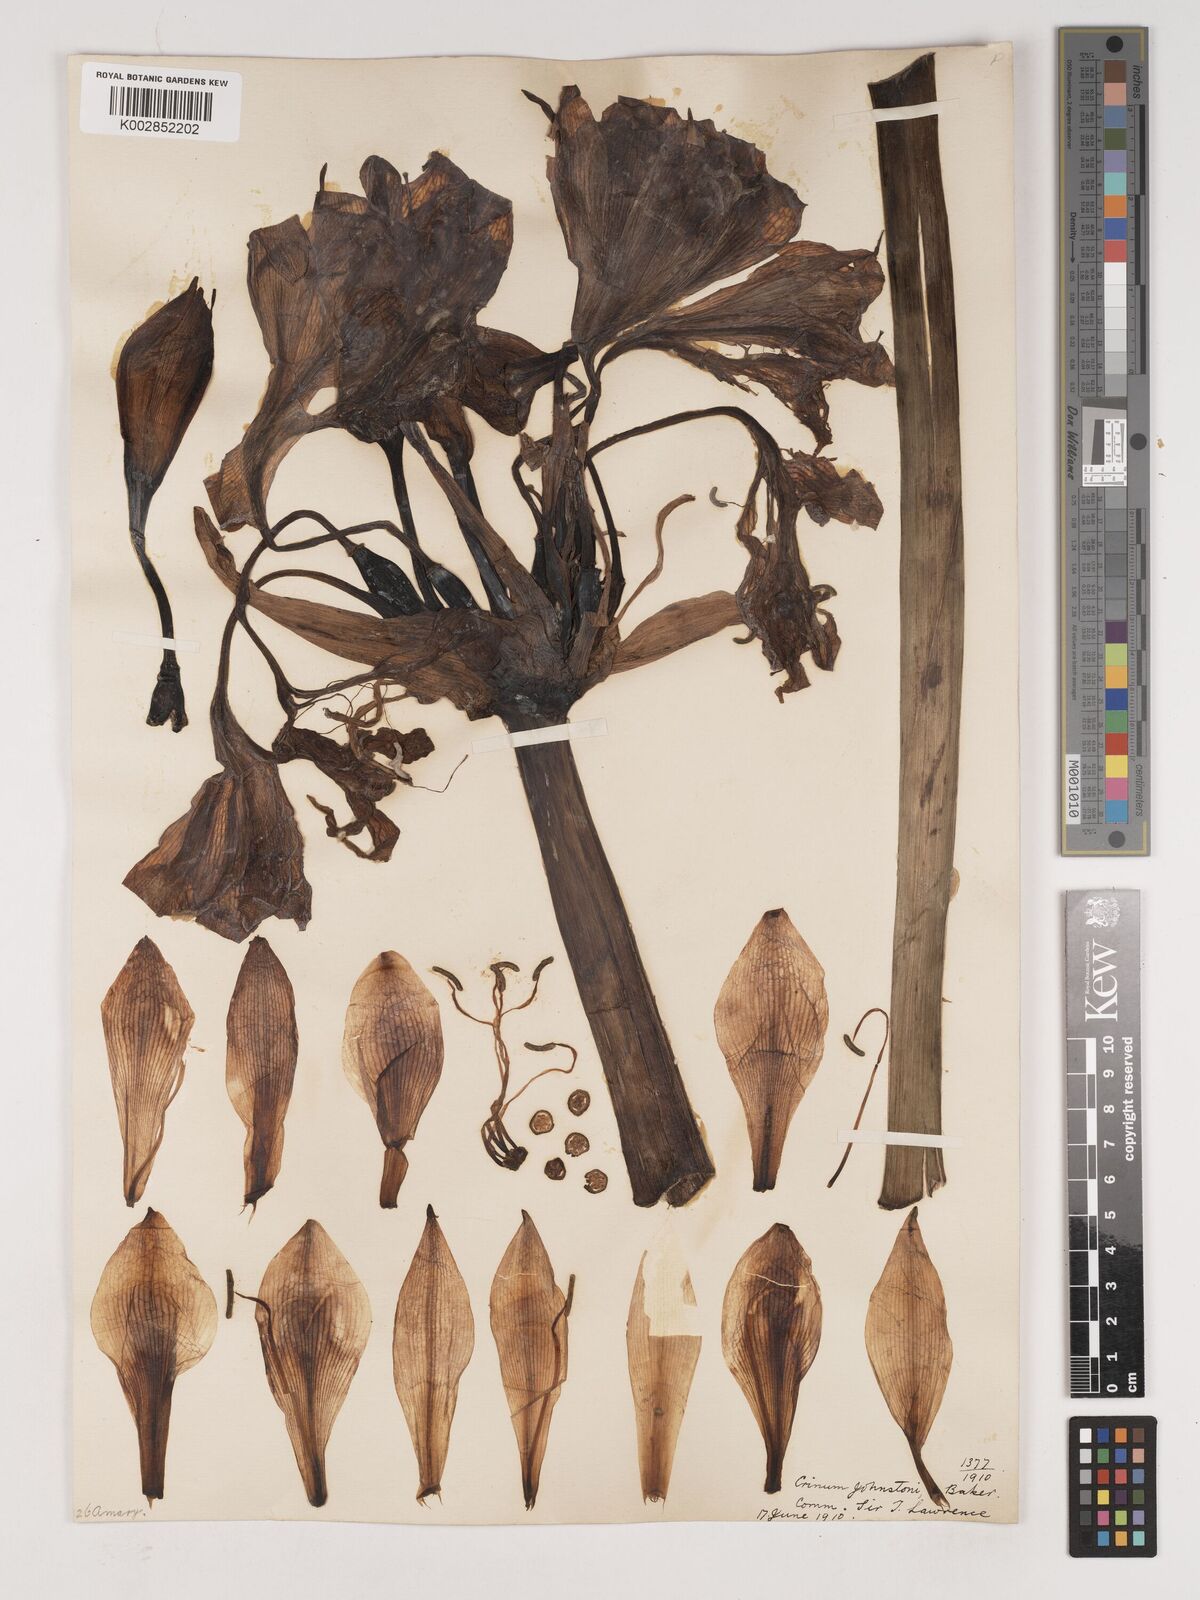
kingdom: Plantae
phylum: Tracheophyta
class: Liliopsida
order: Asparagales
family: Amaryllidaceae
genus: Crinum
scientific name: Crinum macowanii
